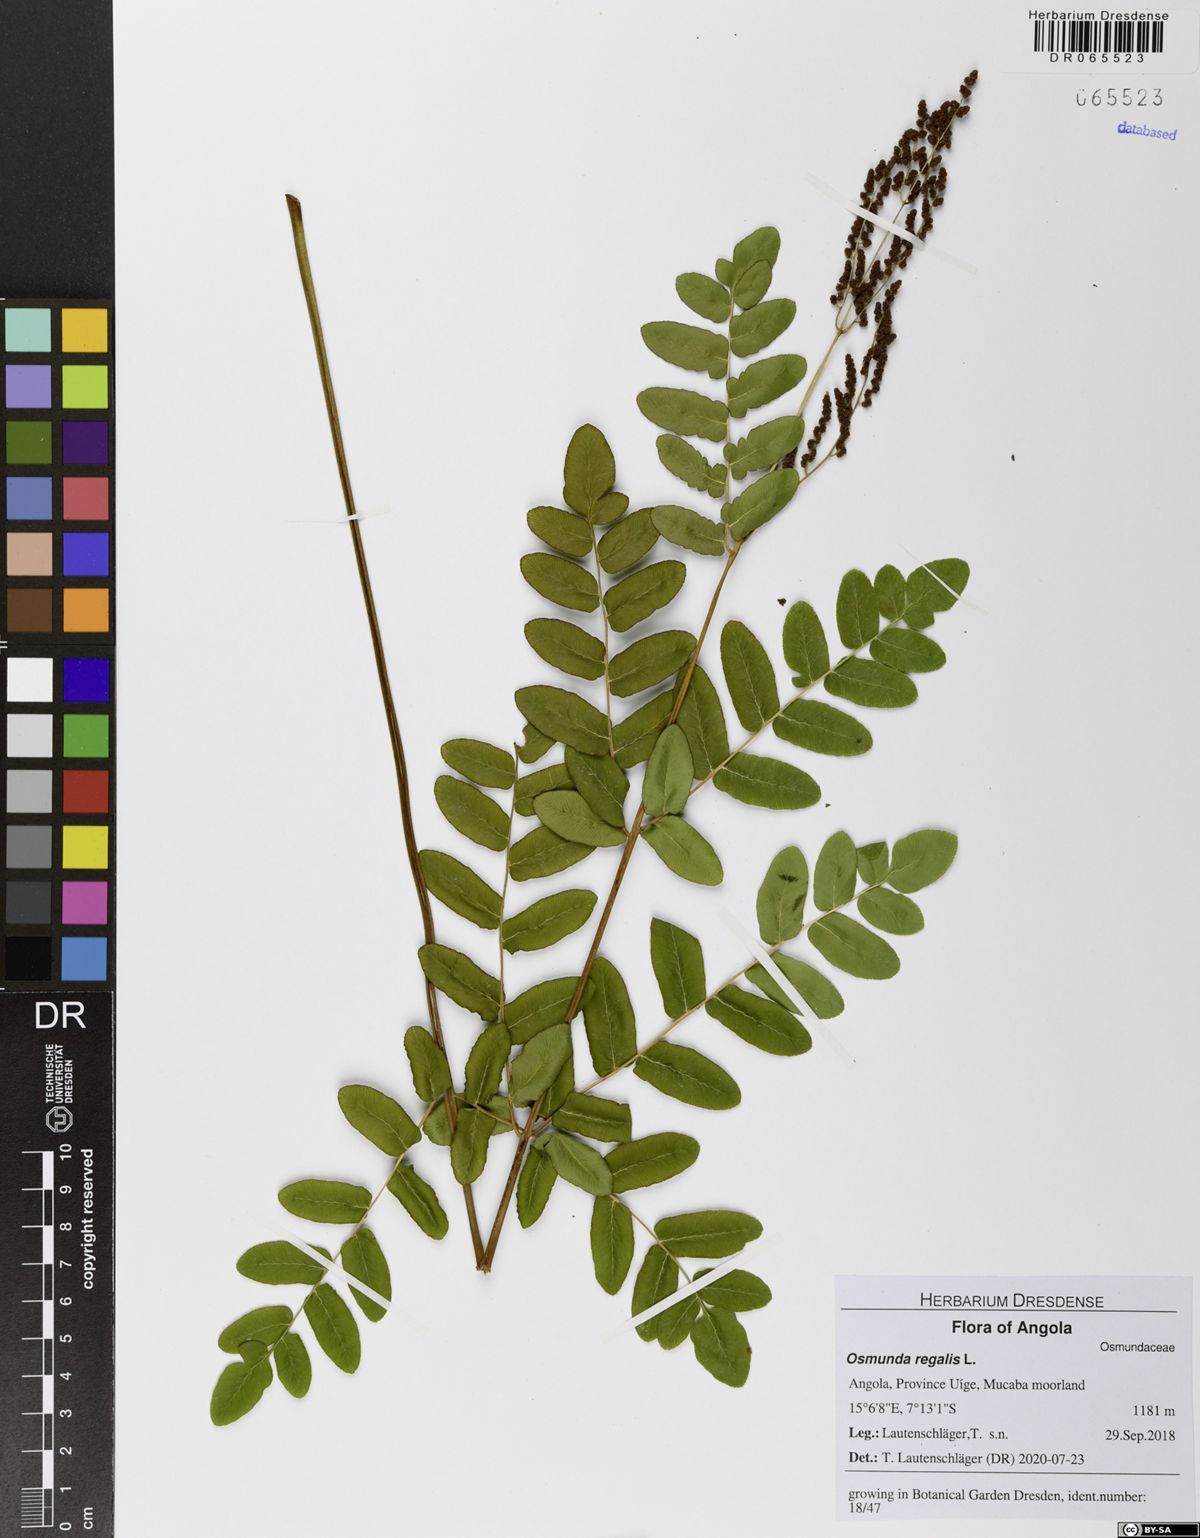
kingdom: Plantae
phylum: Tracheophyta
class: Polypodiopsida
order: Osmundales
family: Osmundaceae
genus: Osmunda
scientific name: Osmunda regalis
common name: Royal fern
